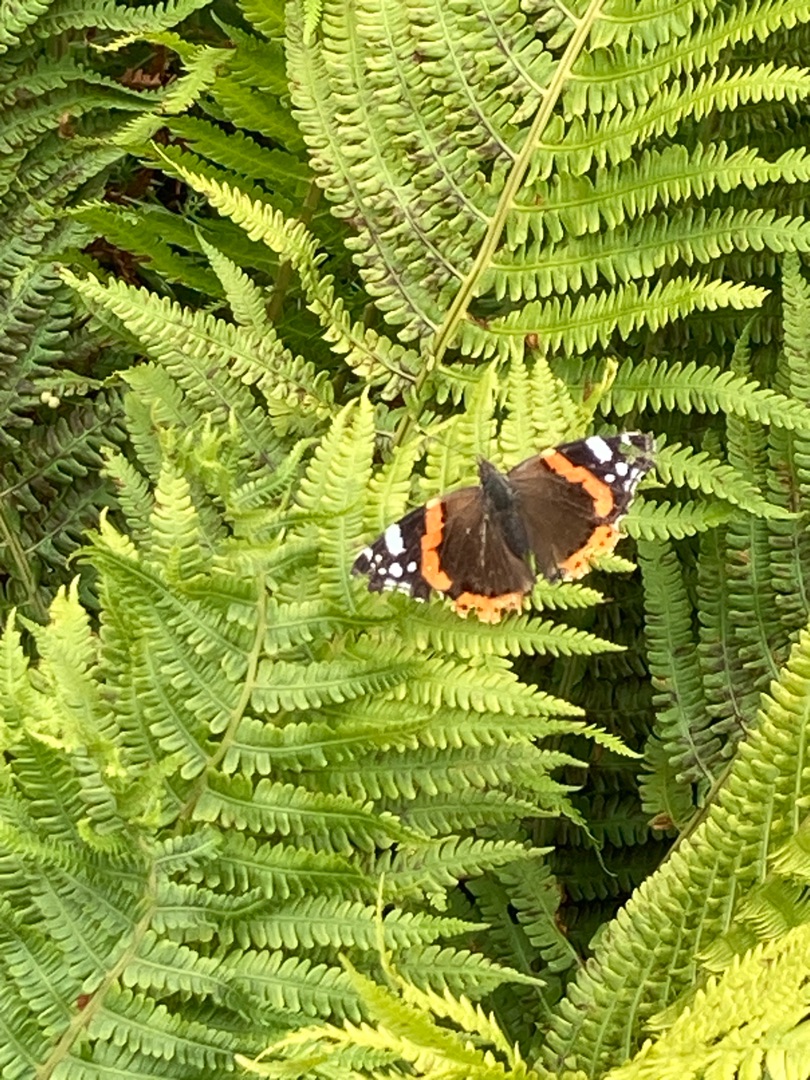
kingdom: Animalia
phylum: Arthropoda
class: Insecta
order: Lepidoptera
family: Nymphalidae
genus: Vanessa
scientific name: Vanessa atalanta
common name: Admiral
